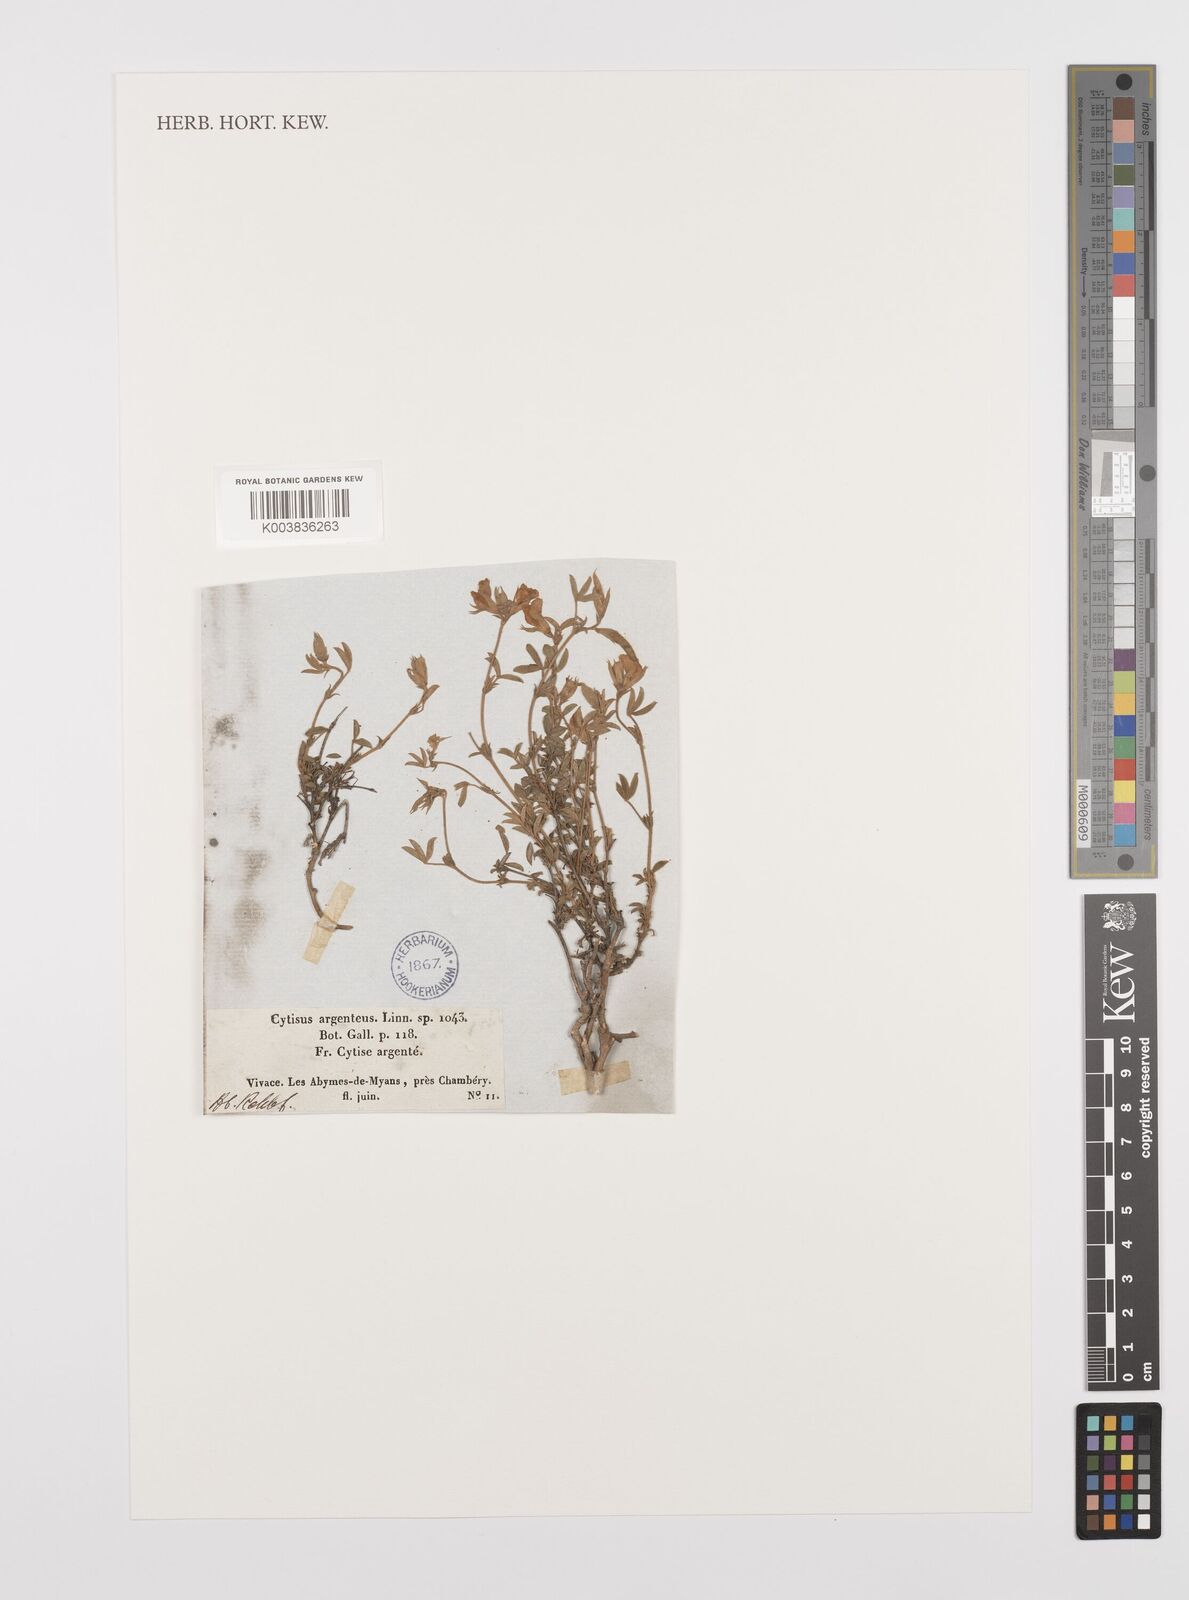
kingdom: Plantae
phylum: Tracheophyta
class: Magnoliopsida
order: Fabales
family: Fabaceae
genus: Argyrolobium
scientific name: Argyrolobium zanonii
